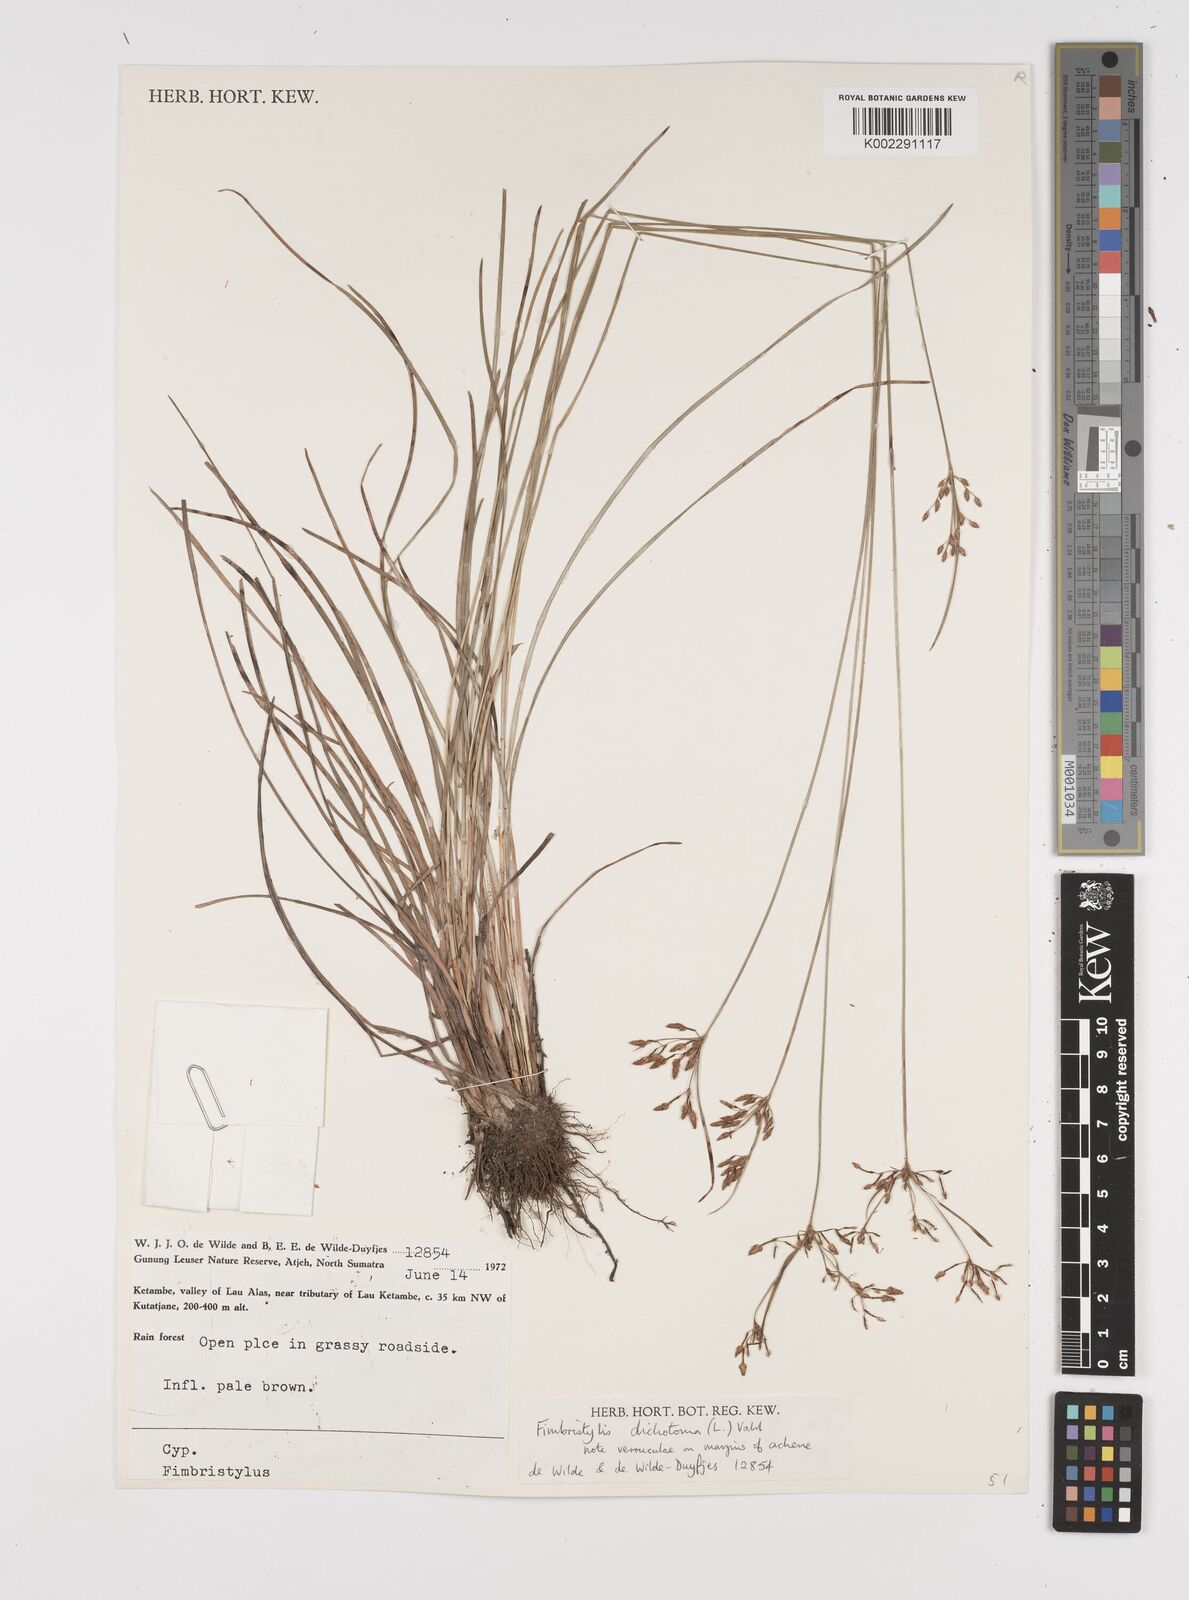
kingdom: Plantae
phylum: Tracheophyta
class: Liliopsida
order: Poales
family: Cyperaceae
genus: Fimbristylis
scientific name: Fimbristylis dichotoma
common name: Forked fimbry
